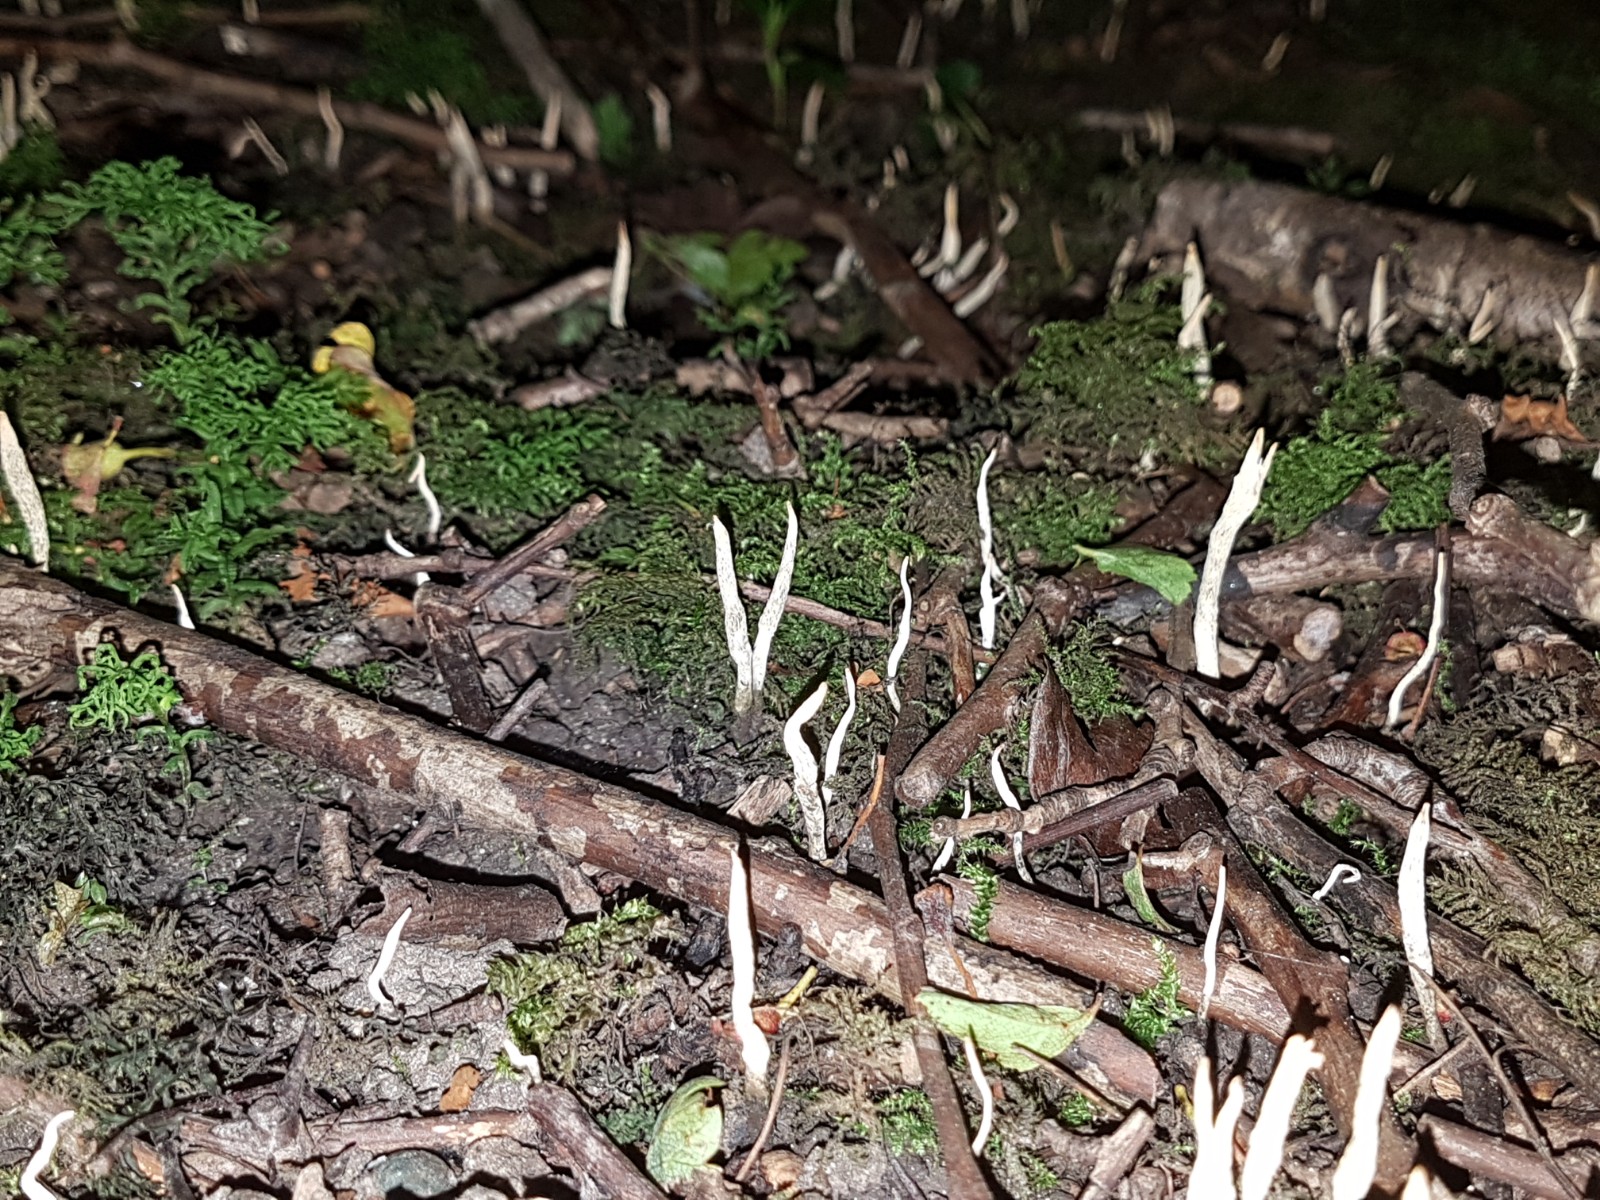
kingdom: Fungi
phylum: Ascomycota
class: Sordariomycetes
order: Xylariales
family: Xylariaceae
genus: Xylaria
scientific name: Xylaria oxyacanthae
